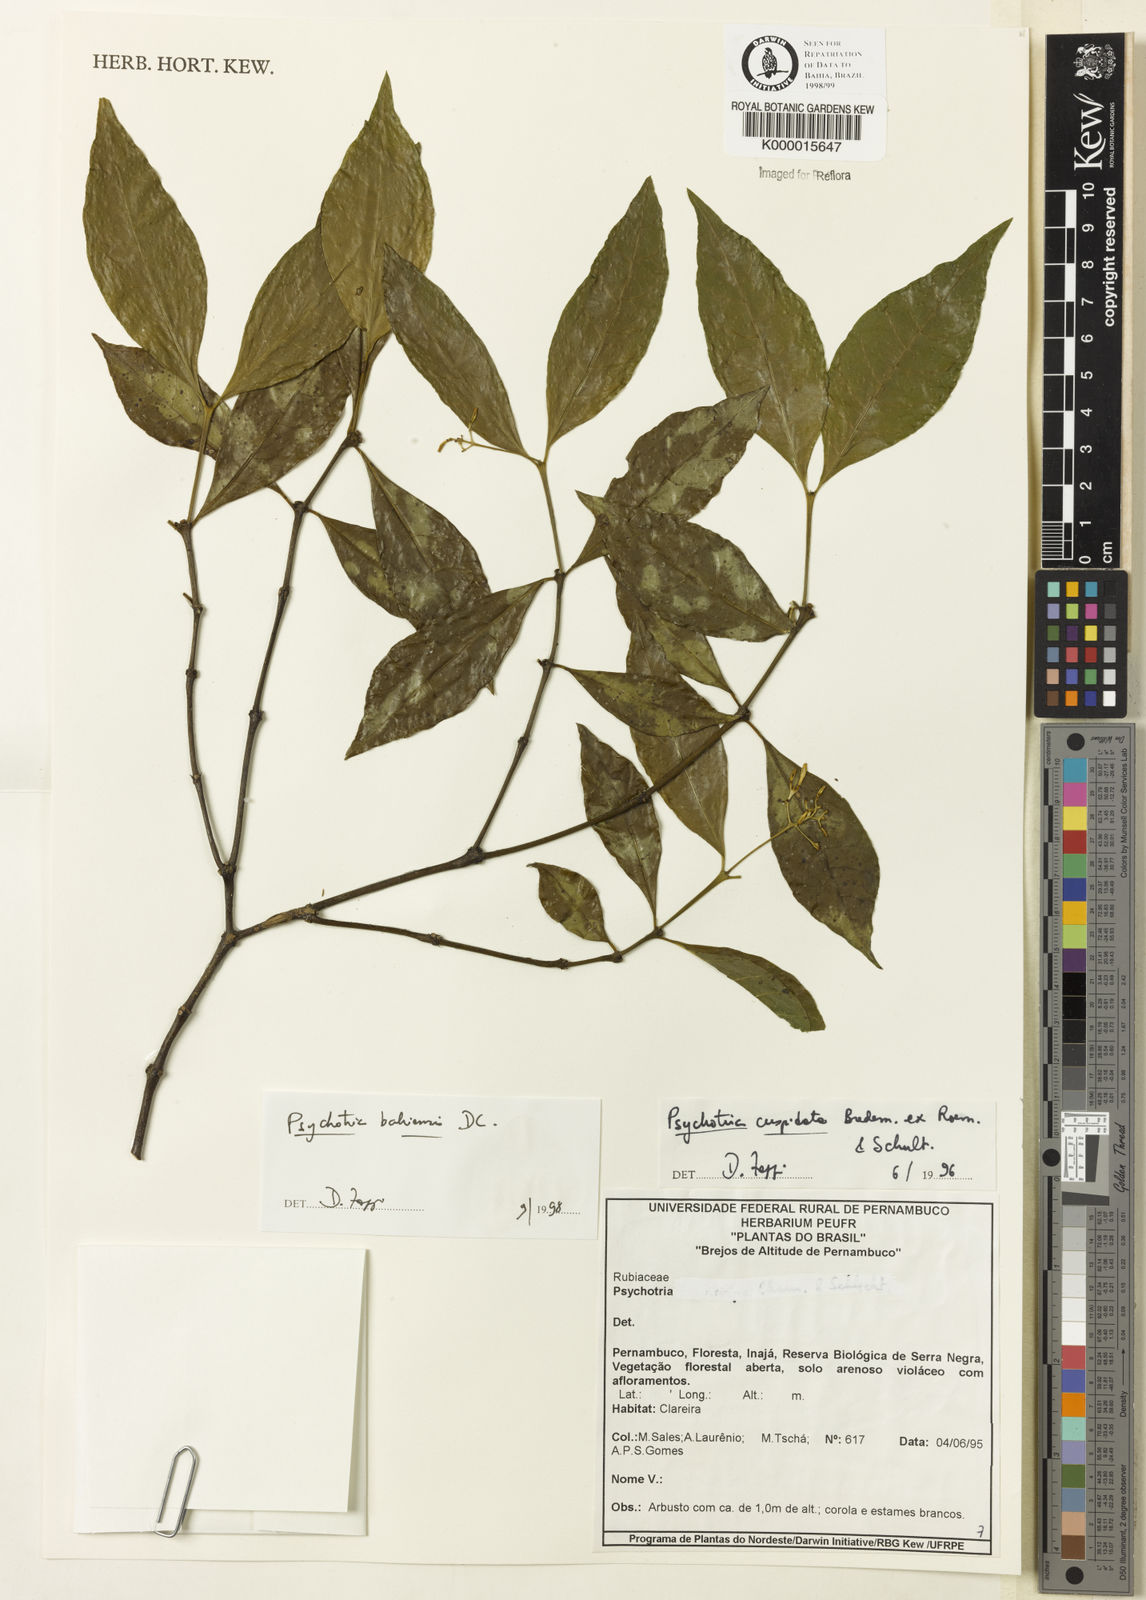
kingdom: Plantae
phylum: Tracheophyta
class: Magnoliopsida
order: Gentianales
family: Rubiaceae
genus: Psychotria
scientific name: Psychotria bahiensis
